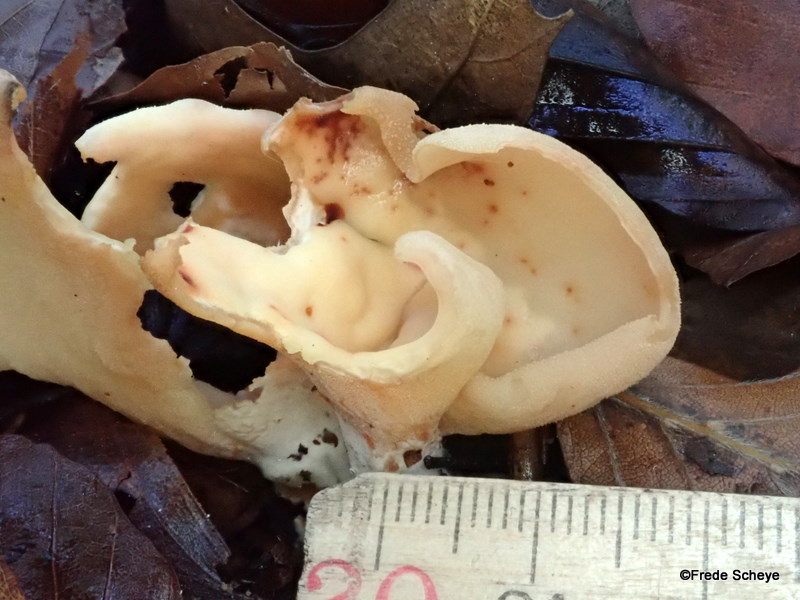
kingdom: Fungi
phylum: Ascomycota
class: Pezizomycetes
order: Pezizales
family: Otideaceae
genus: Otidea
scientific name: Otidea onotica
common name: æsel-ørebæger
